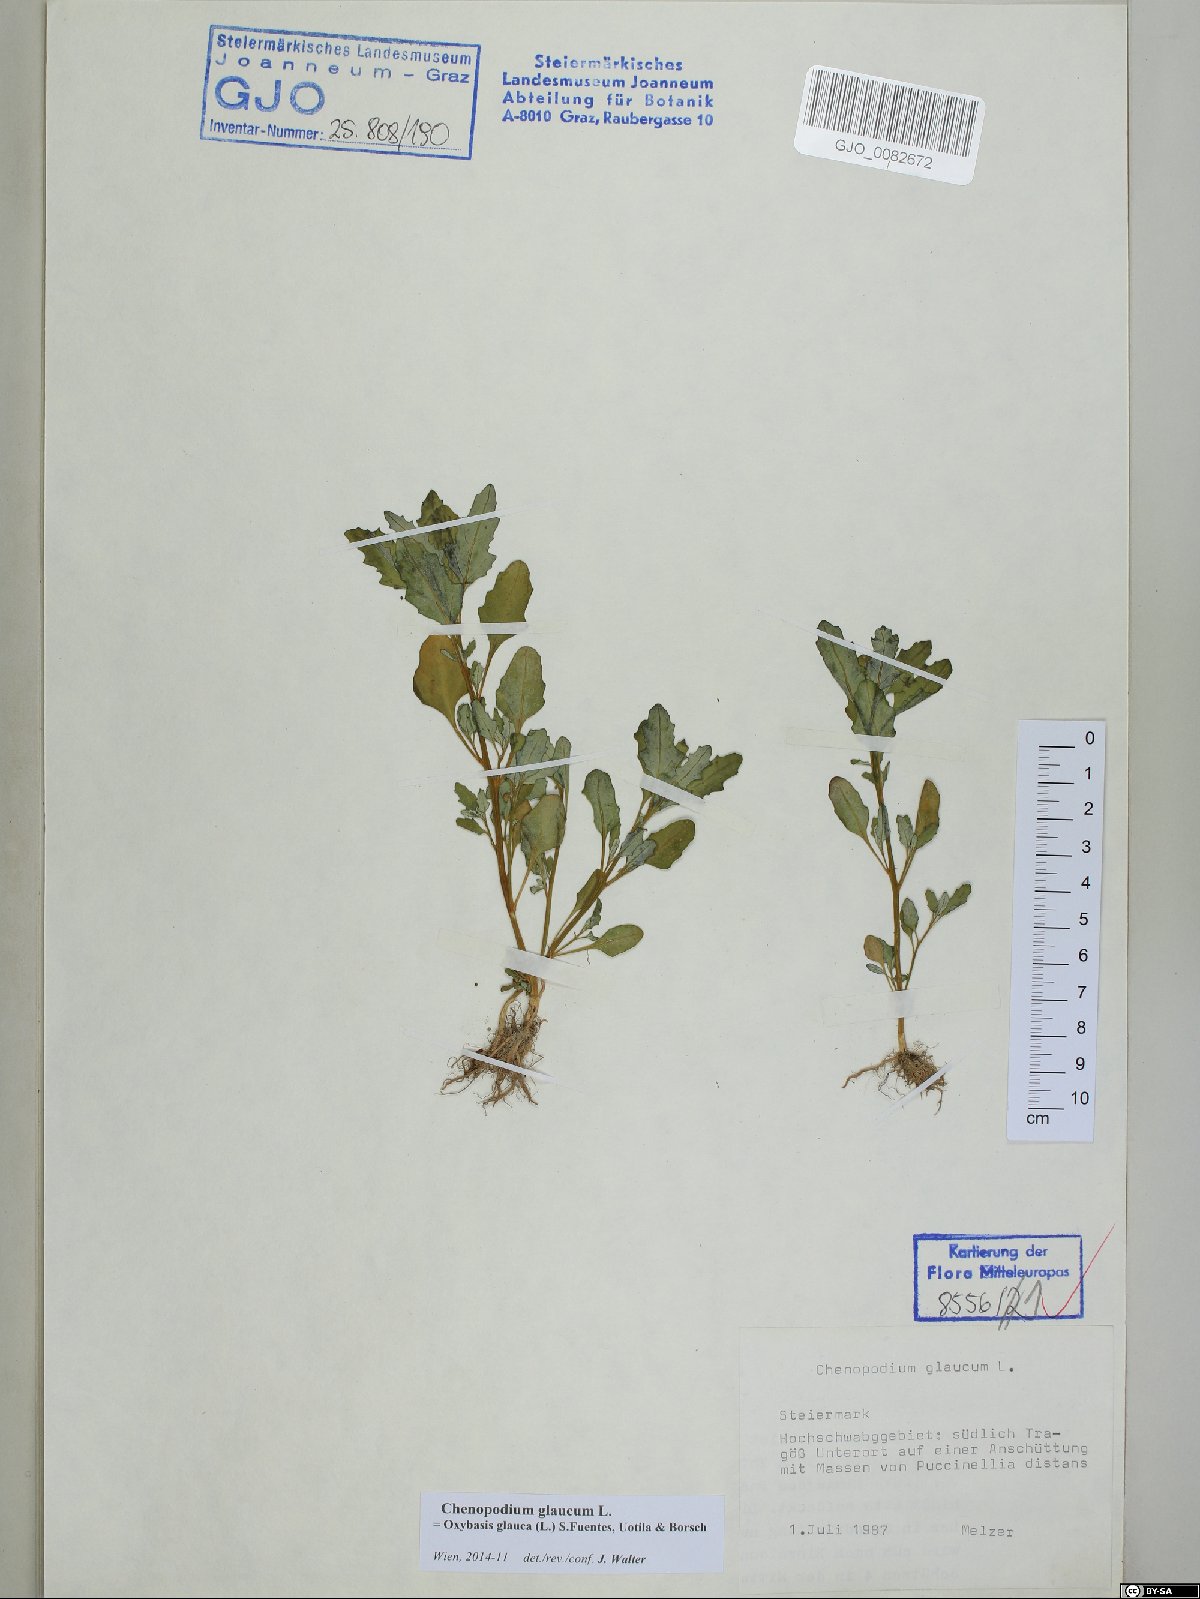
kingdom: Plantae
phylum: Tracheophyta
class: Magnoliopsida
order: Caryophyllales
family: Amaranthaceae
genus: Oxybasis
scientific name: Oxybasis glauca
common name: Glaucous goosefoot
